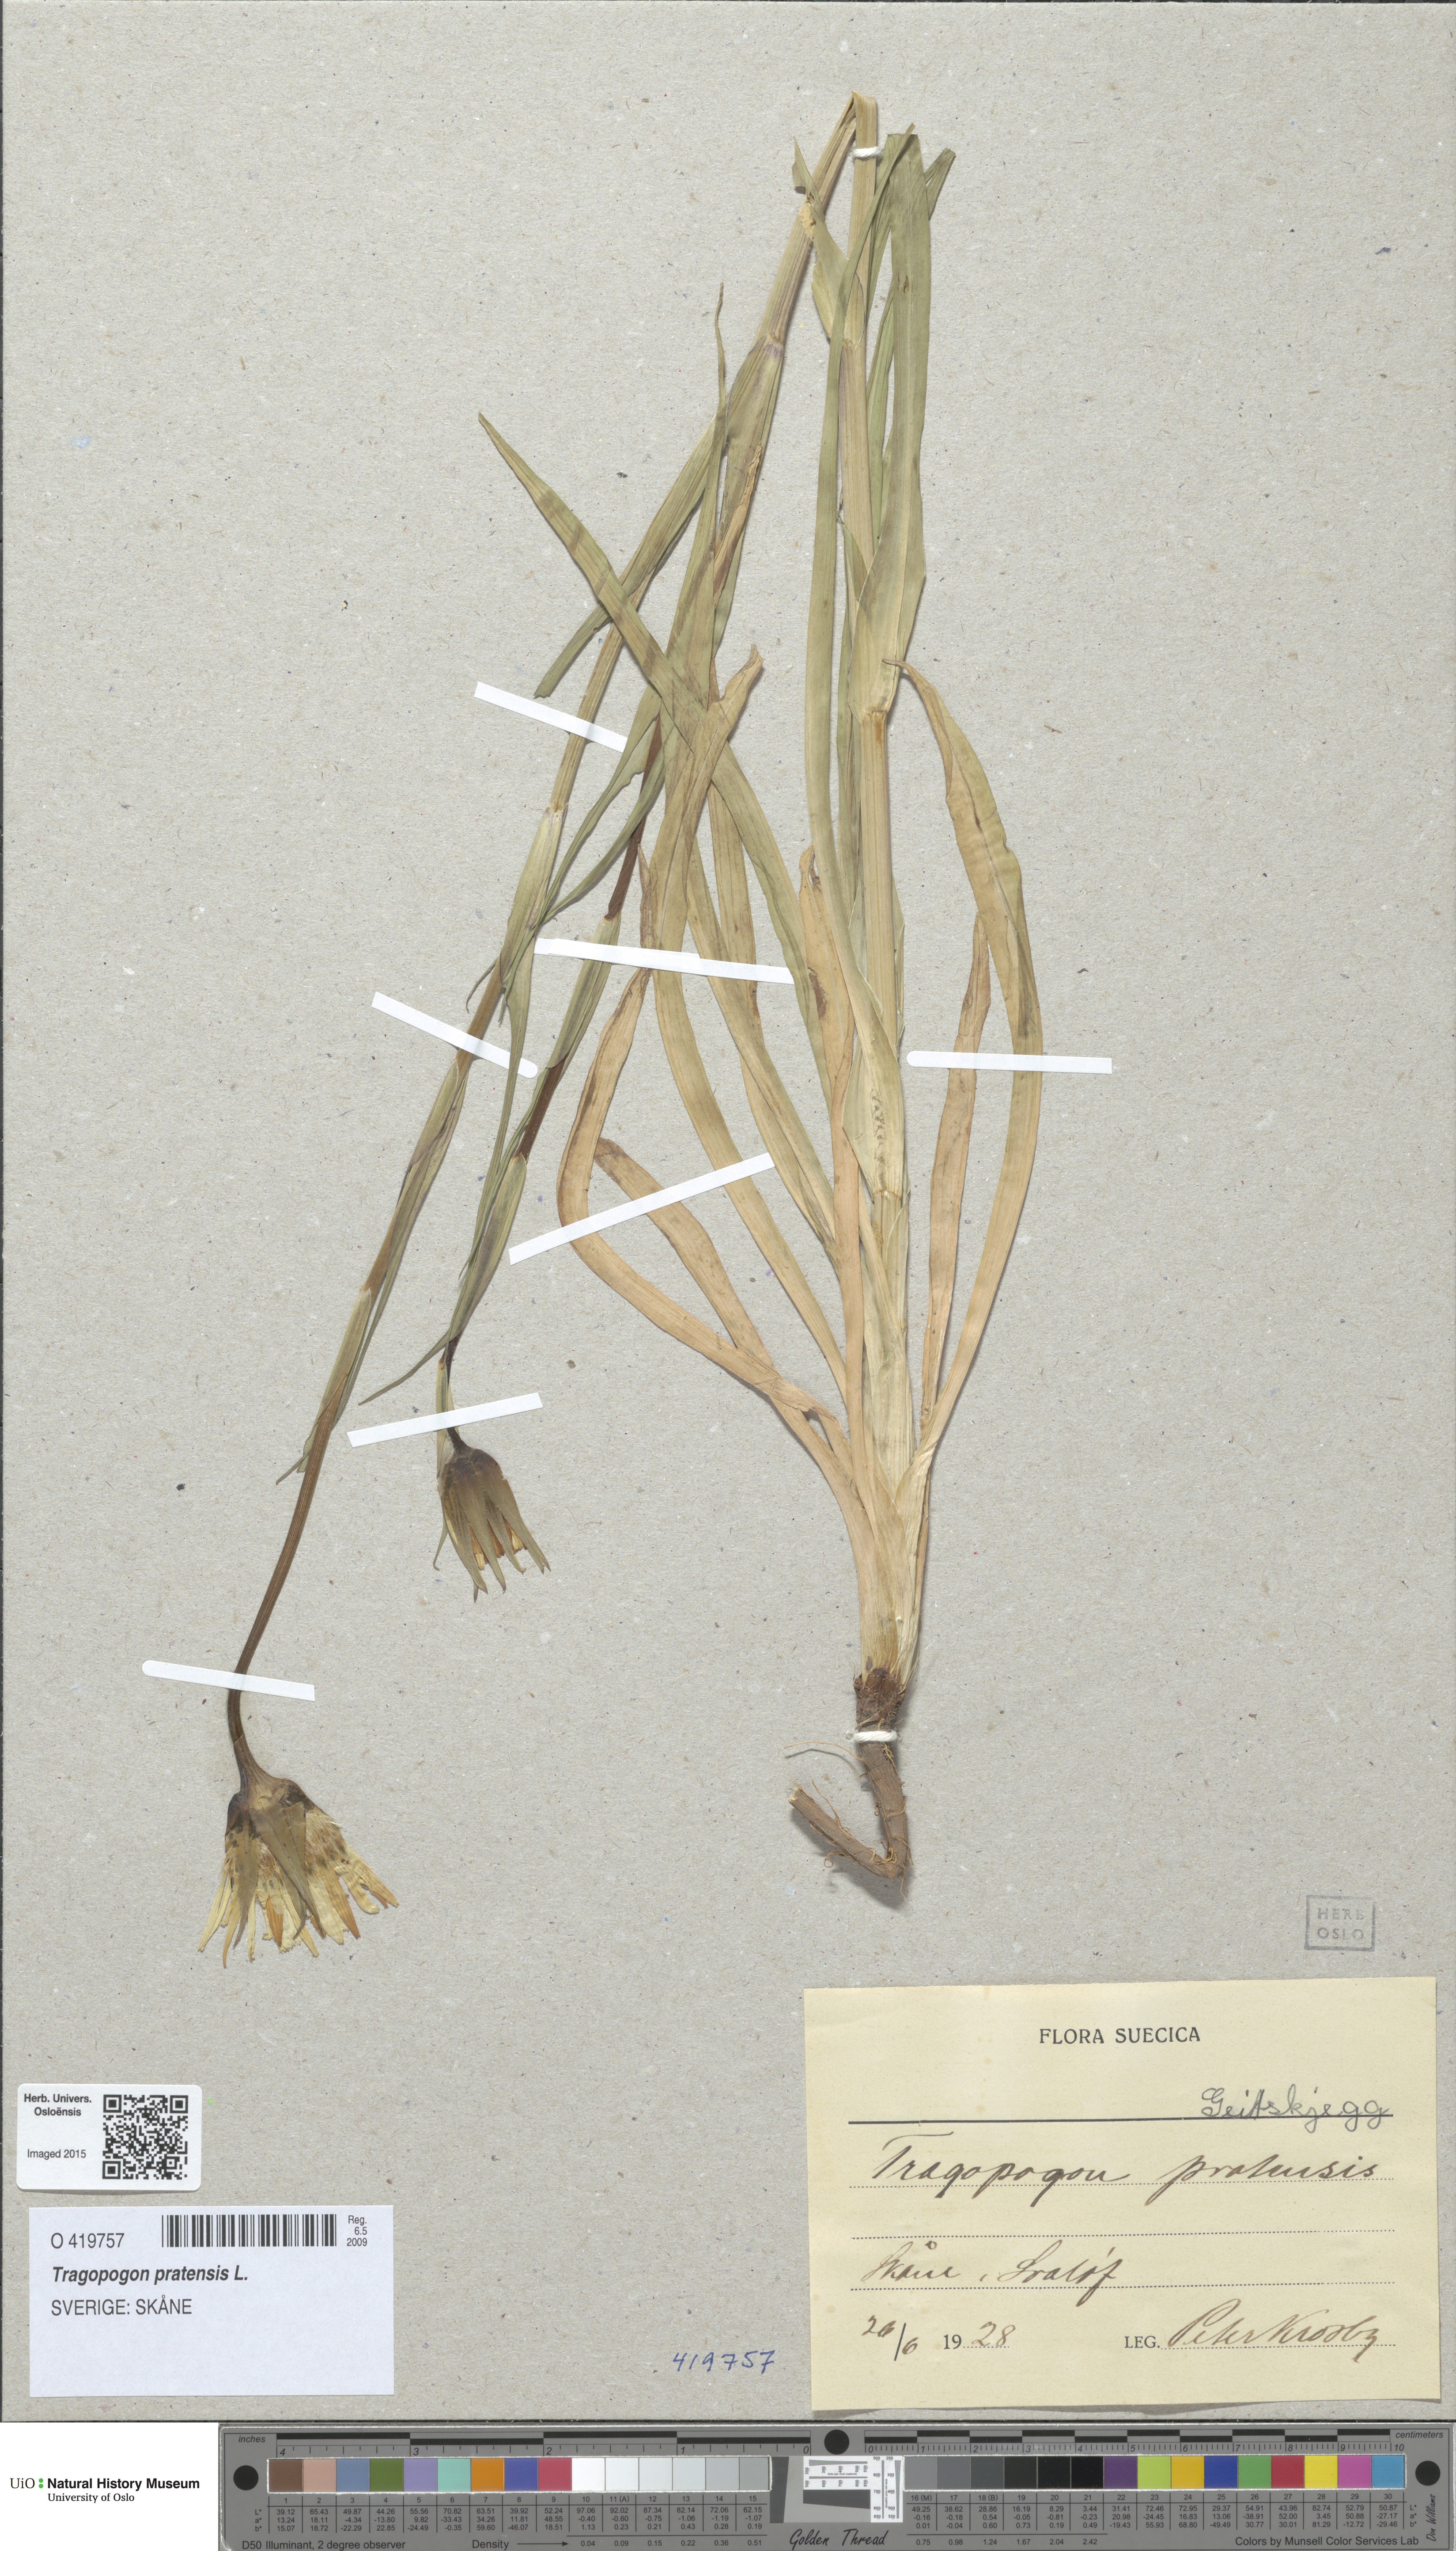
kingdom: Plantae
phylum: Tracheophyta
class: Magnoliopsida
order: Asterales
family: Asteraceae
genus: Tragopogon
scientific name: Tragopogon pratensis
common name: Goat's-beard
